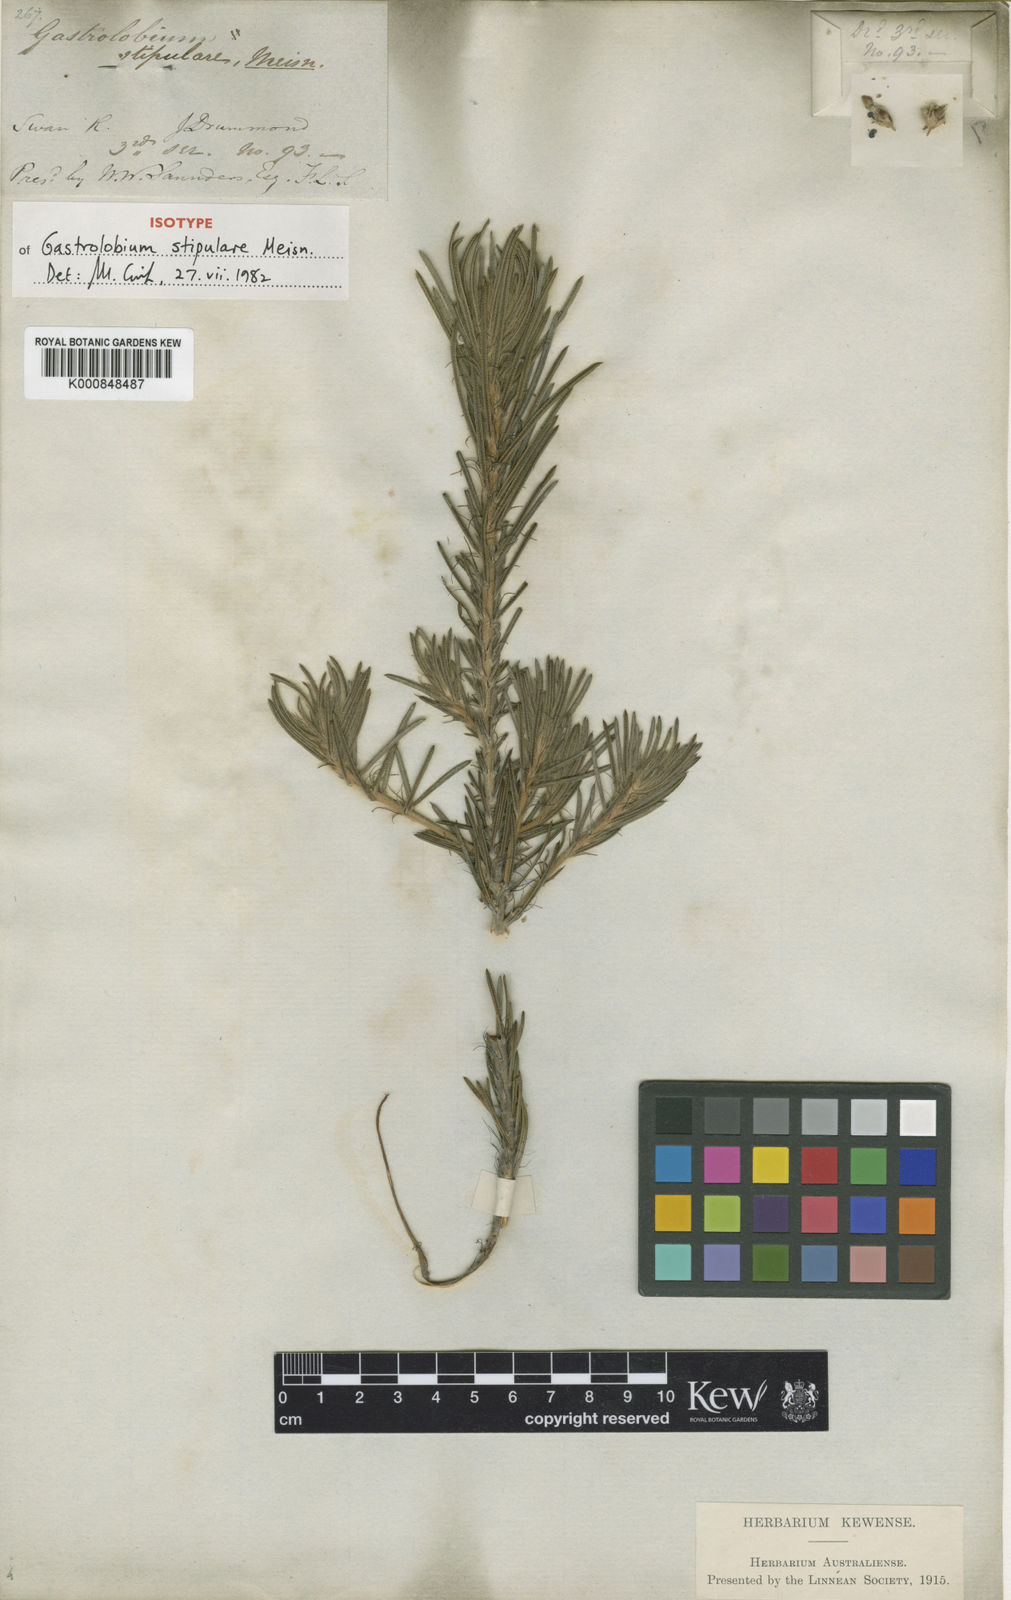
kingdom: Plantae
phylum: Tracheophyta
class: Magnoliopsida
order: Fabales
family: Fabaceae
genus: Gastrolobium
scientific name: Gastrolobium stipulare
